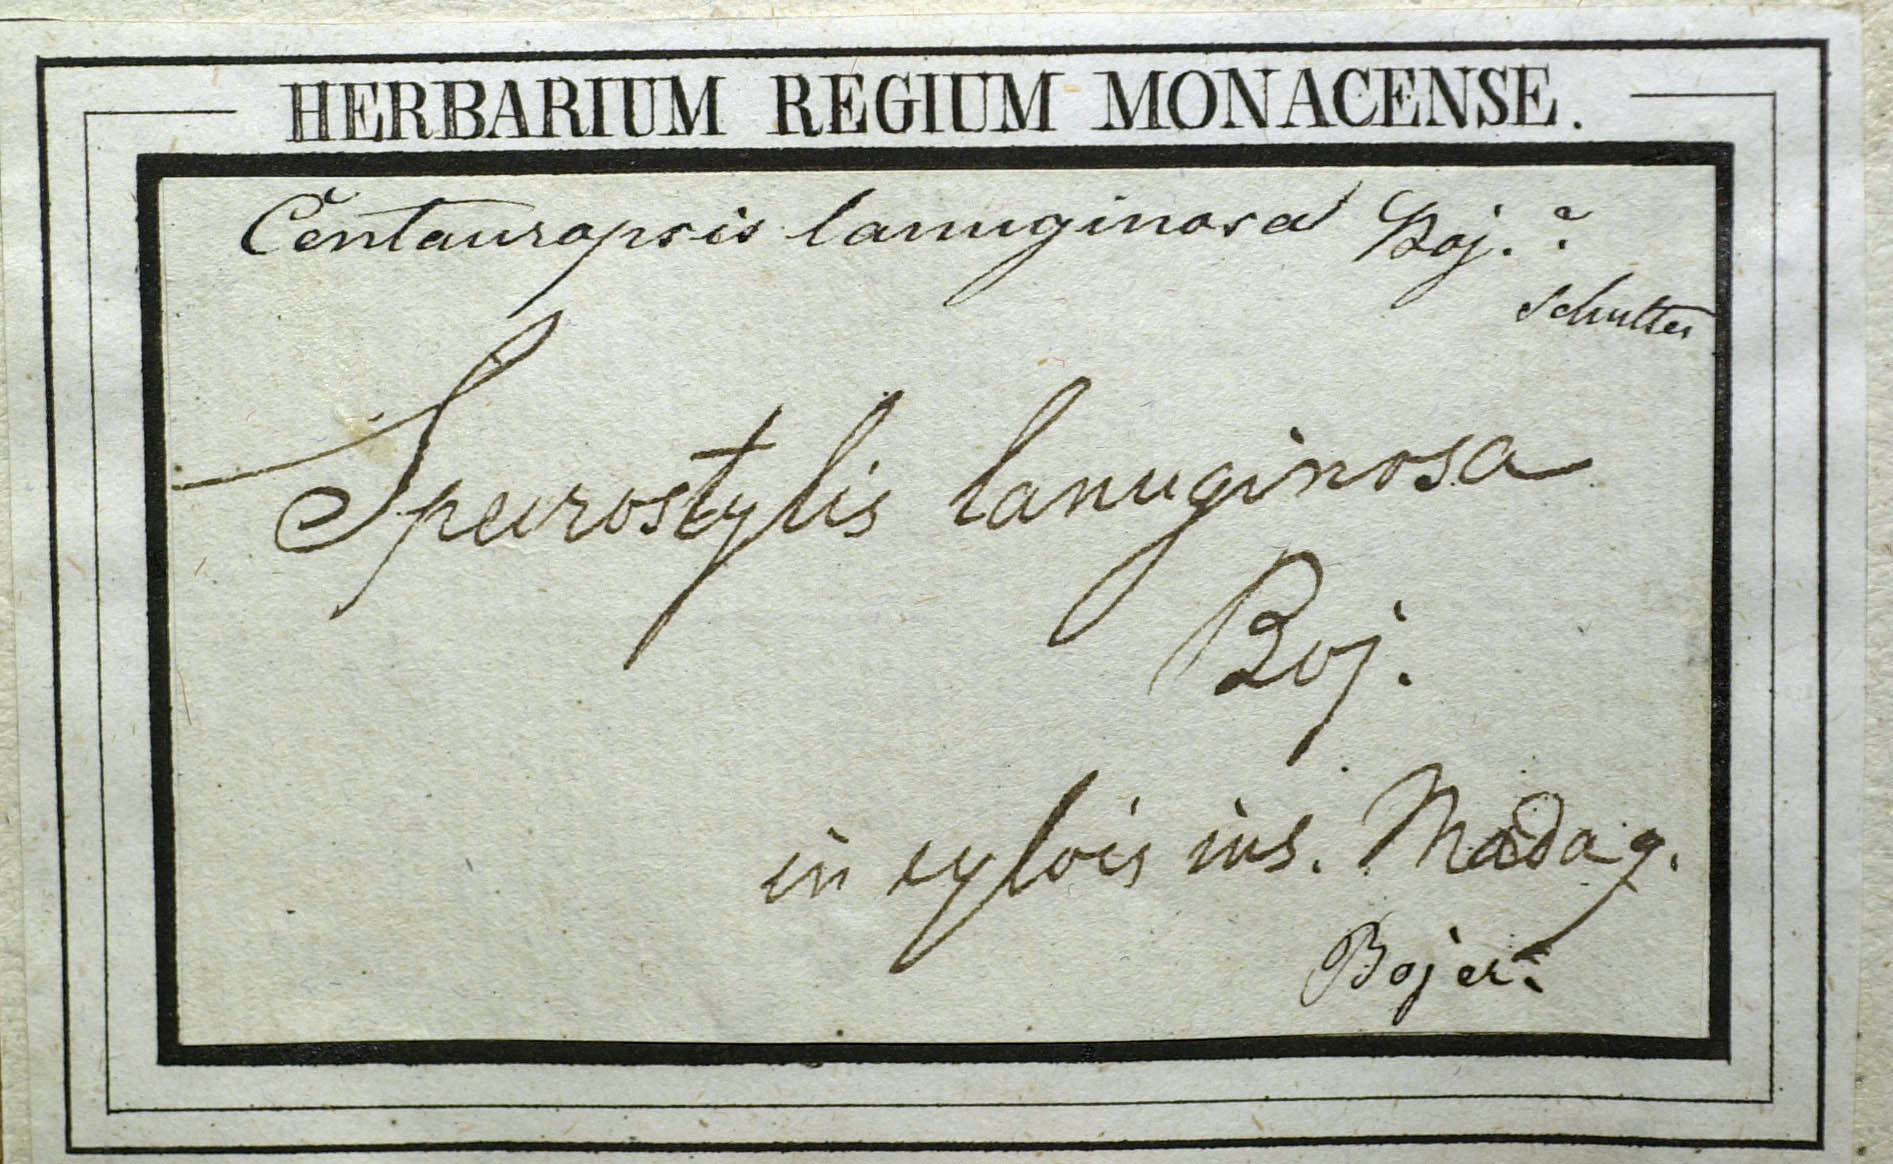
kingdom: Plantae
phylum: Tracheophyta
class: Magnoliopsida
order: Asterales
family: Asteraceae
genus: Oliganthes
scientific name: Oliganthes lanuginosa
